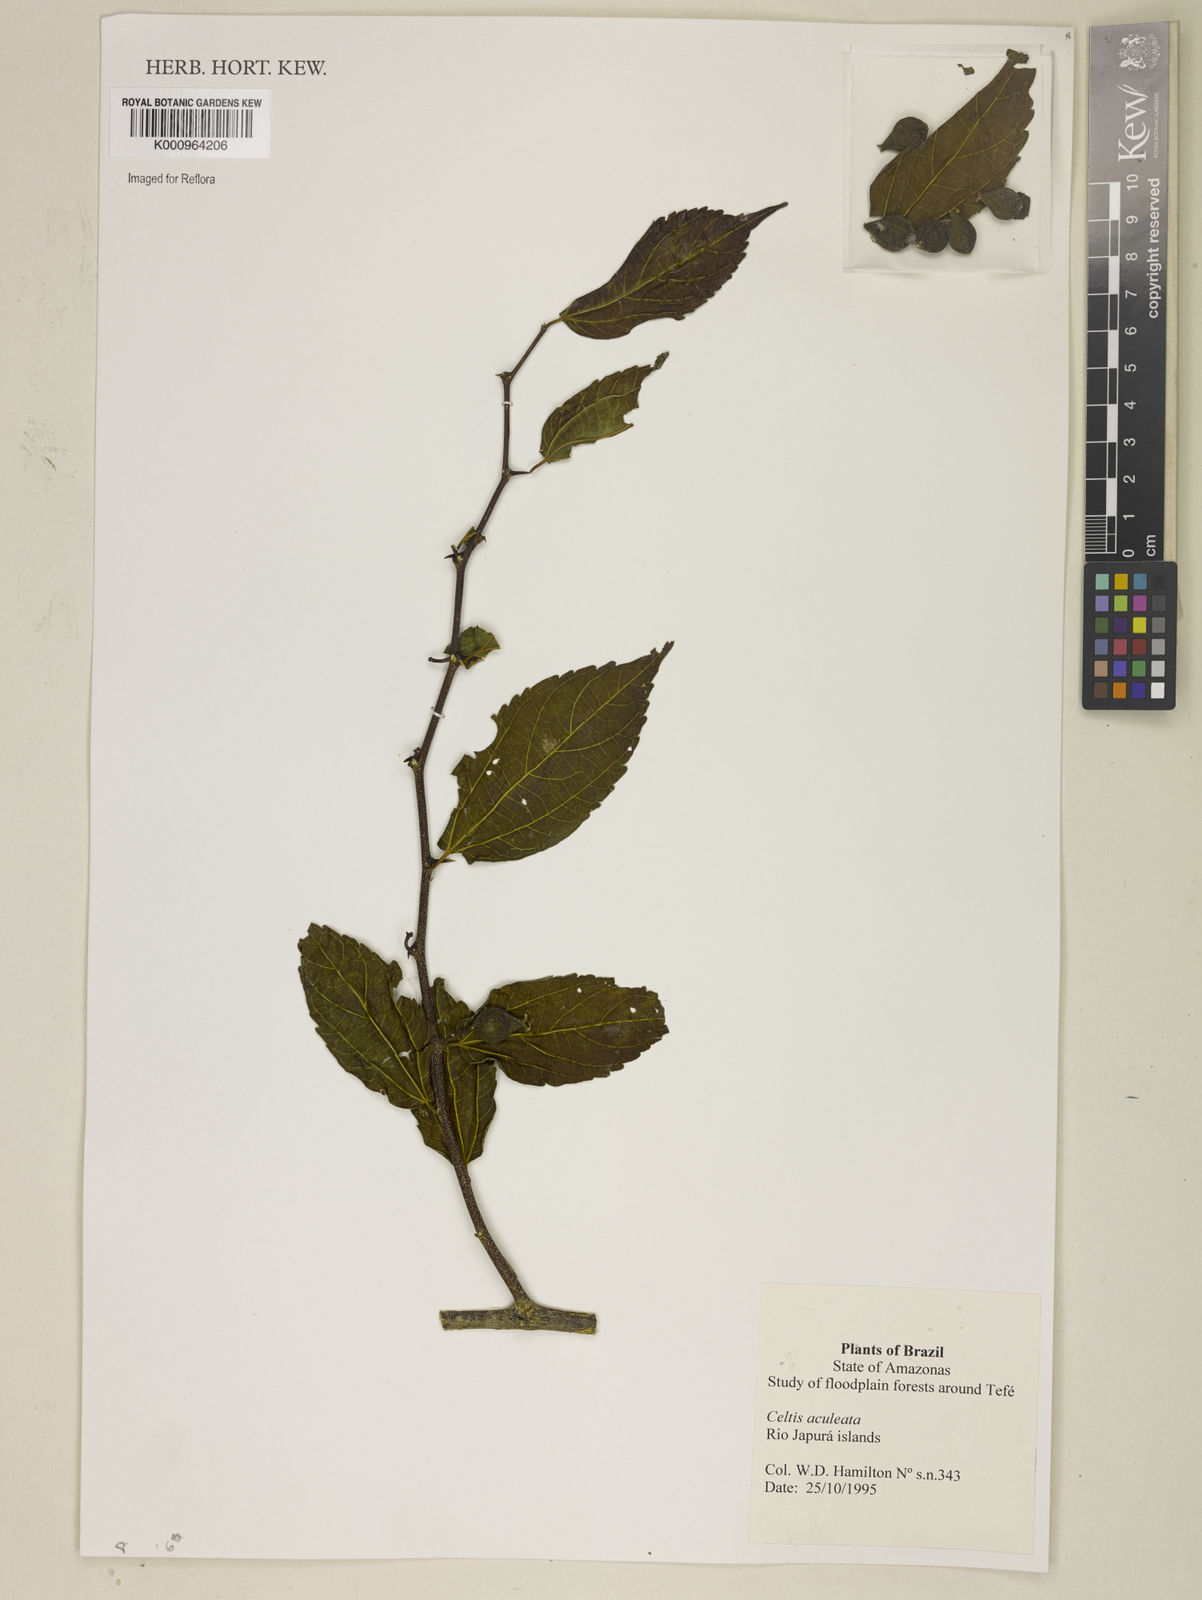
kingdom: Plantae
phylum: Tracheophyta
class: Magnoliopsida
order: Rosales
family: Cannabaceae
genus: Celtis
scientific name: Celtis iguanaea
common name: Iguana hackberry
